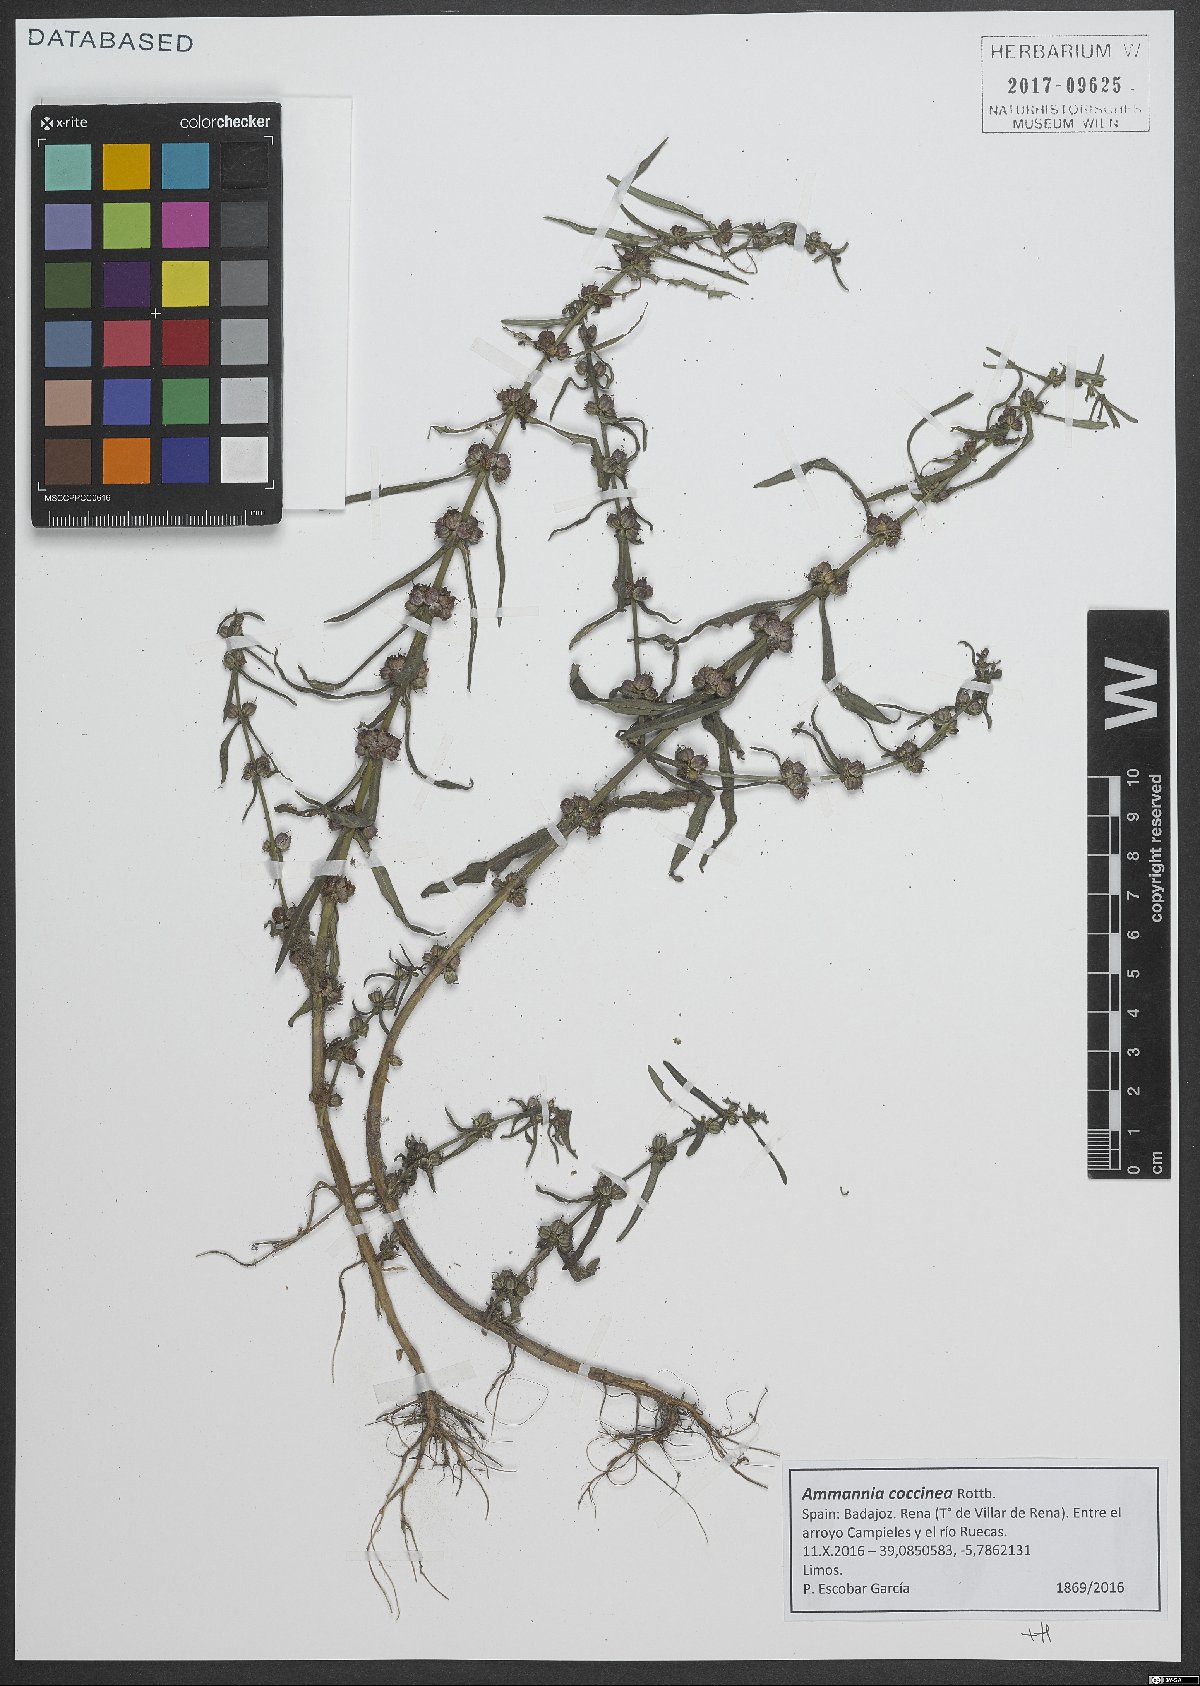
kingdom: Plantae
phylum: Tracheophyta
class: Magnoliopsida
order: Myrtales
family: Lythraceae
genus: Ammannia
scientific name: Ammannia coccinea
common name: Valley redstem
